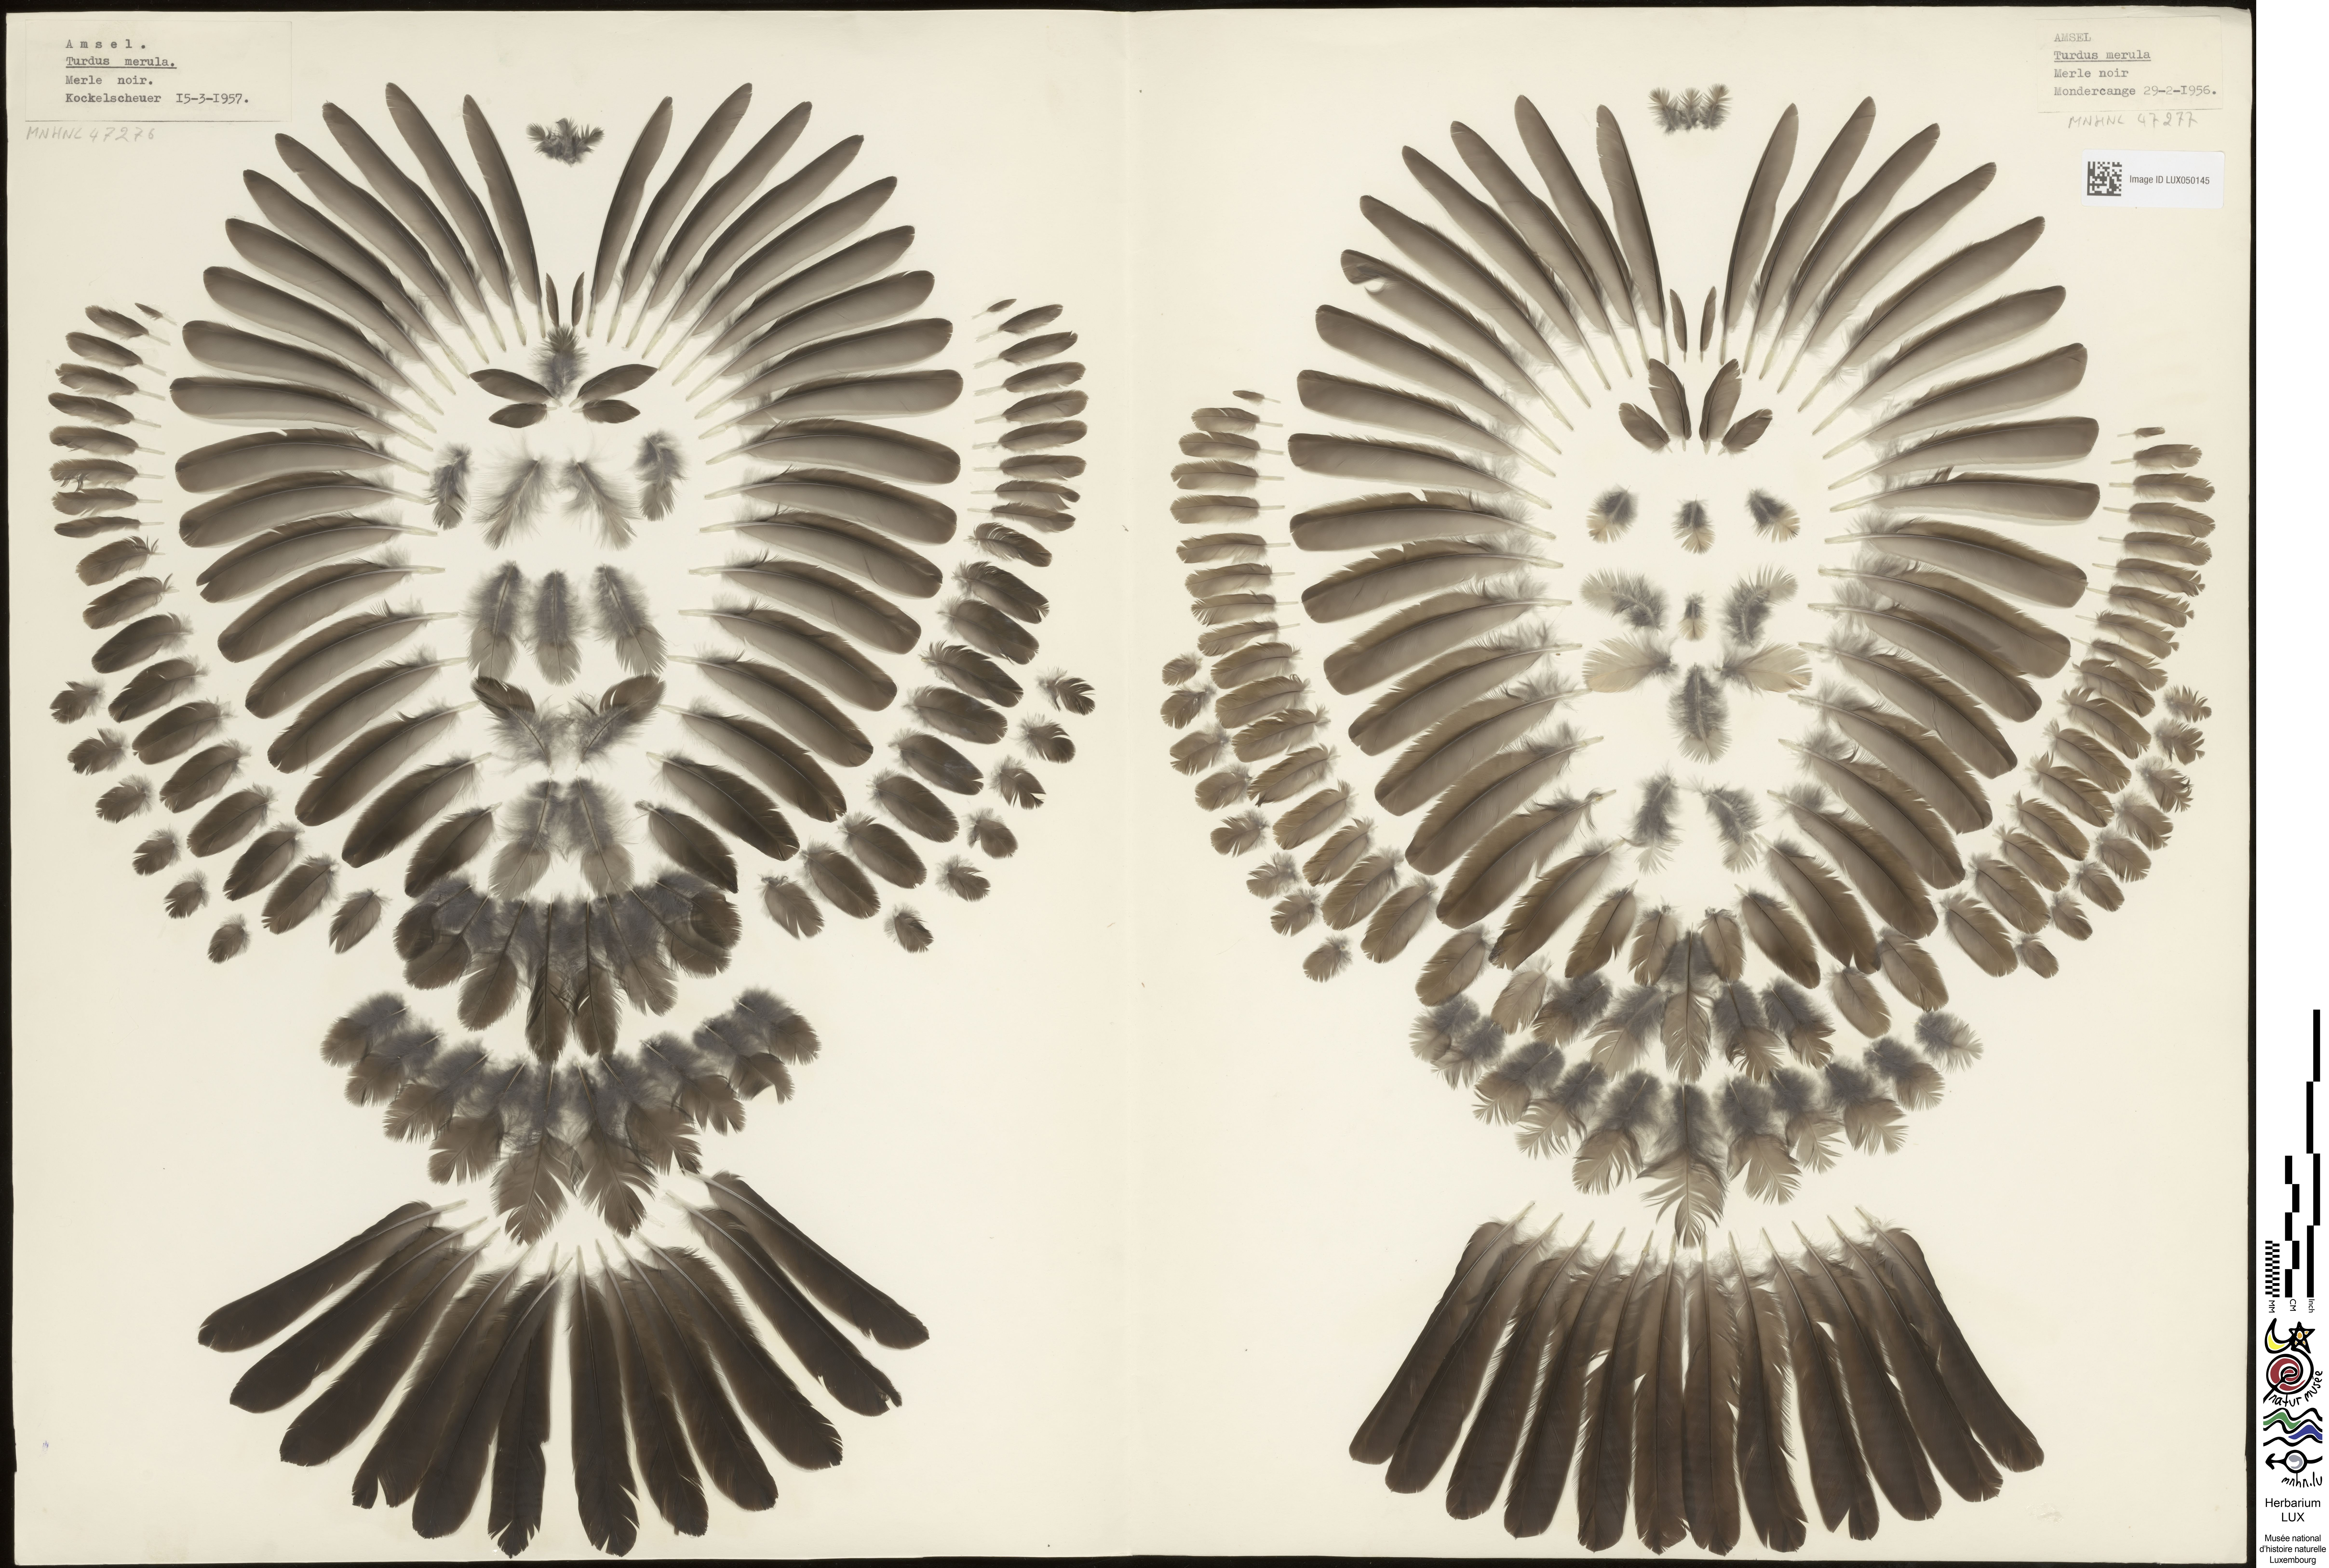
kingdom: Animalia
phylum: Chordata
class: Aves
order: Passeriformes
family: Turdidae
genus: Turdus
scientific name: Turdus merula
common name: Common blackbird
